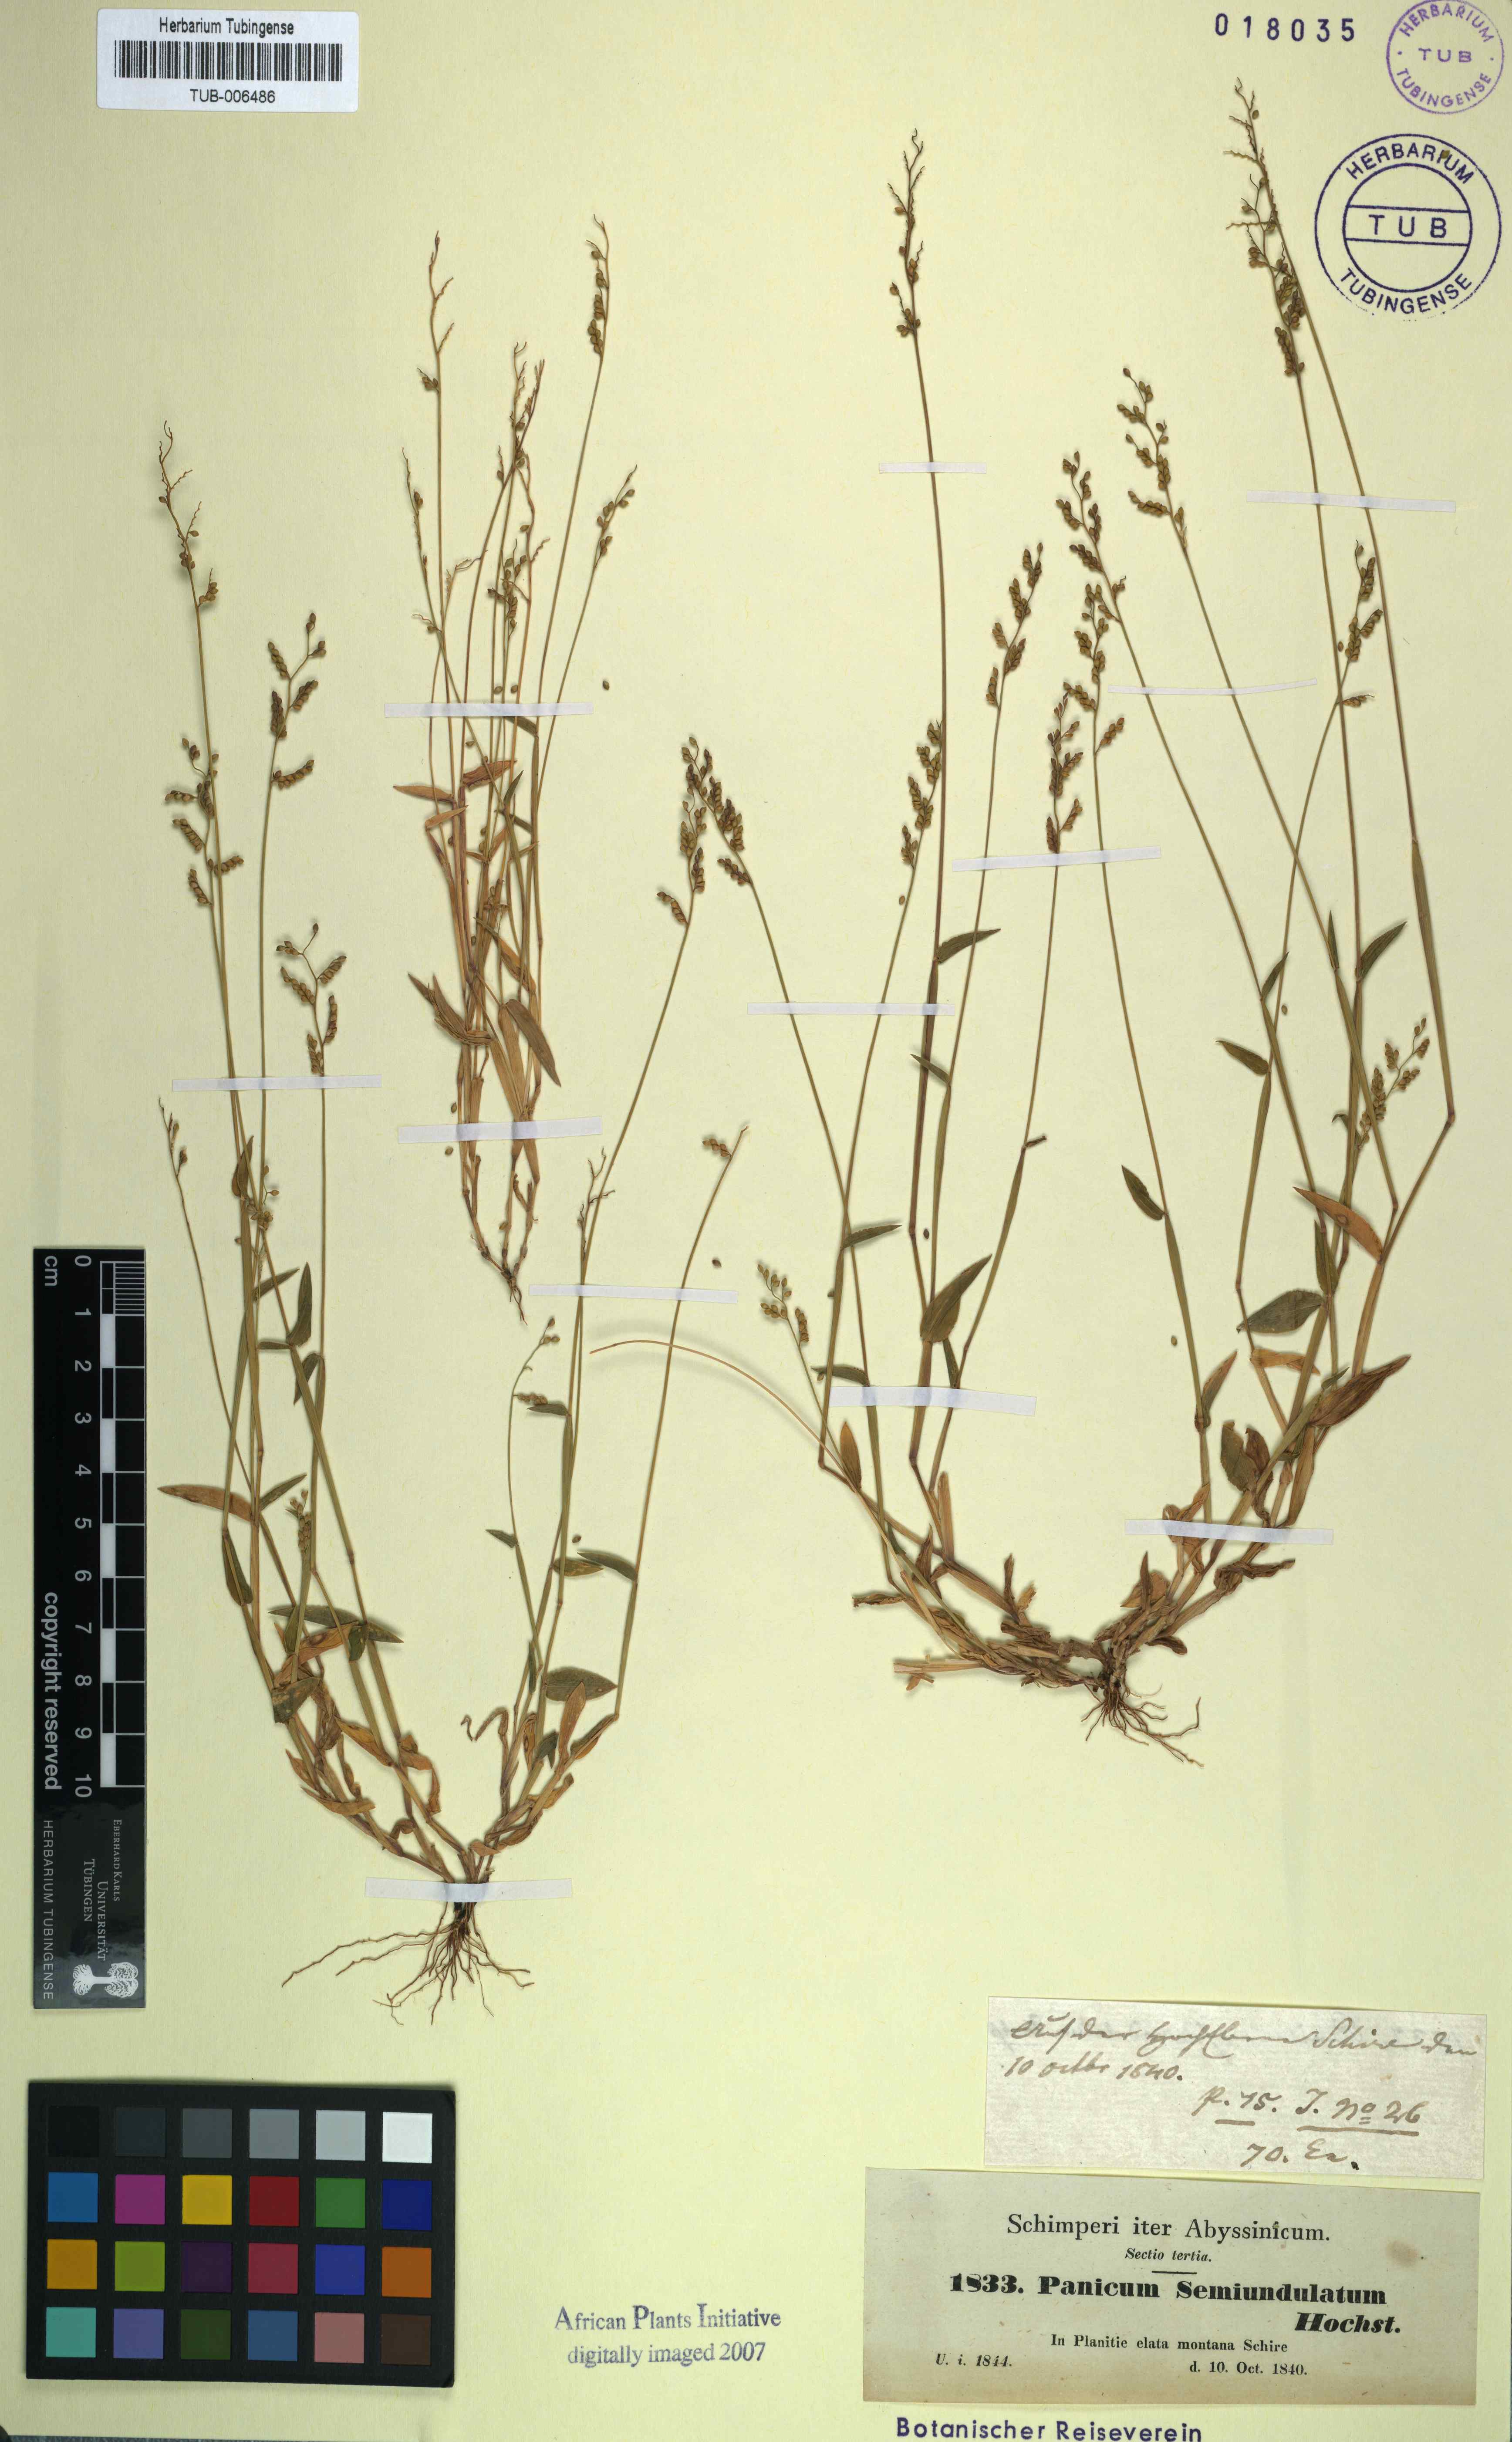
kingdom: Plantae
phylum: Tracheophyta
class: Liliopsida
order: Poales
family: Poaceae
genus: Panicum
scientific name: Panicum semiundulatum
